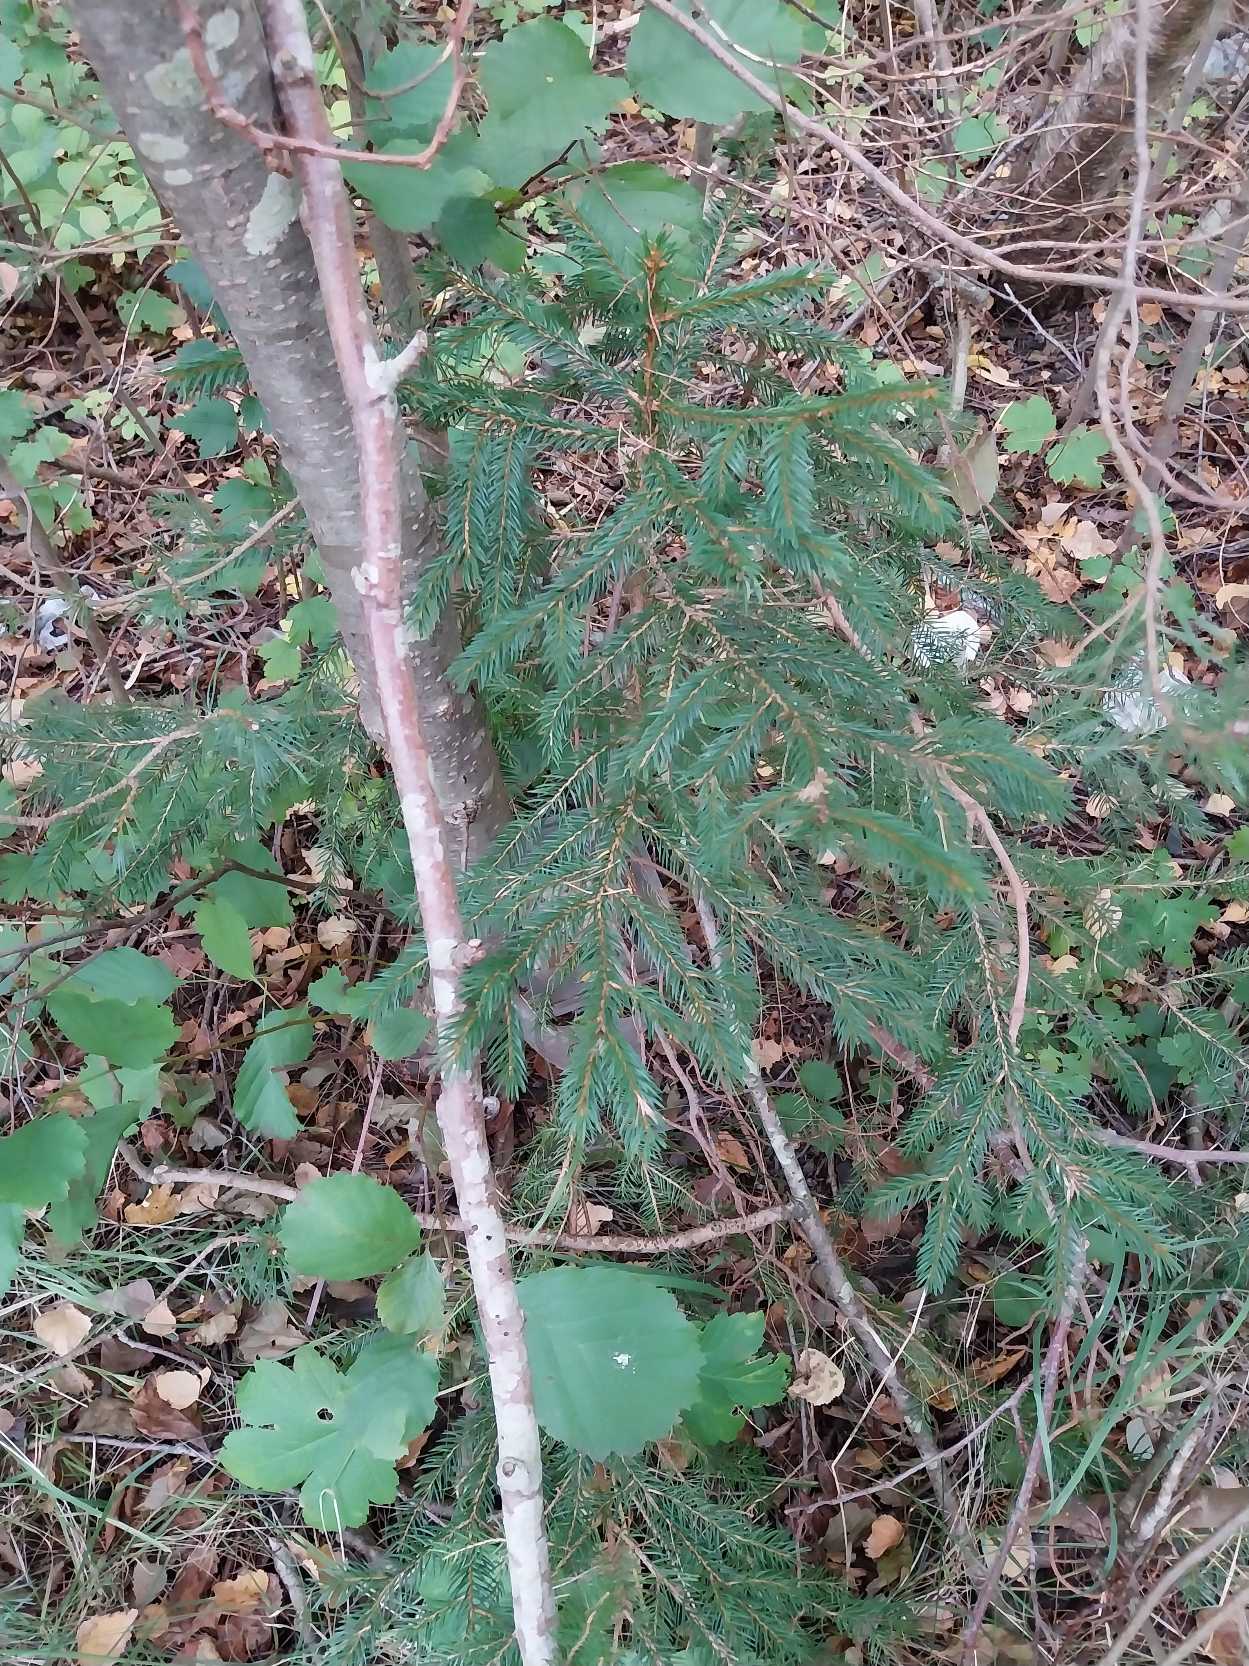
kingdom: Plantae
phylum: Tracheophyta
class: Pinopsida
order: Pinales
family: Pinaceae
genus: Picea
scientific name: Picea abies
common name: Rød-gran
